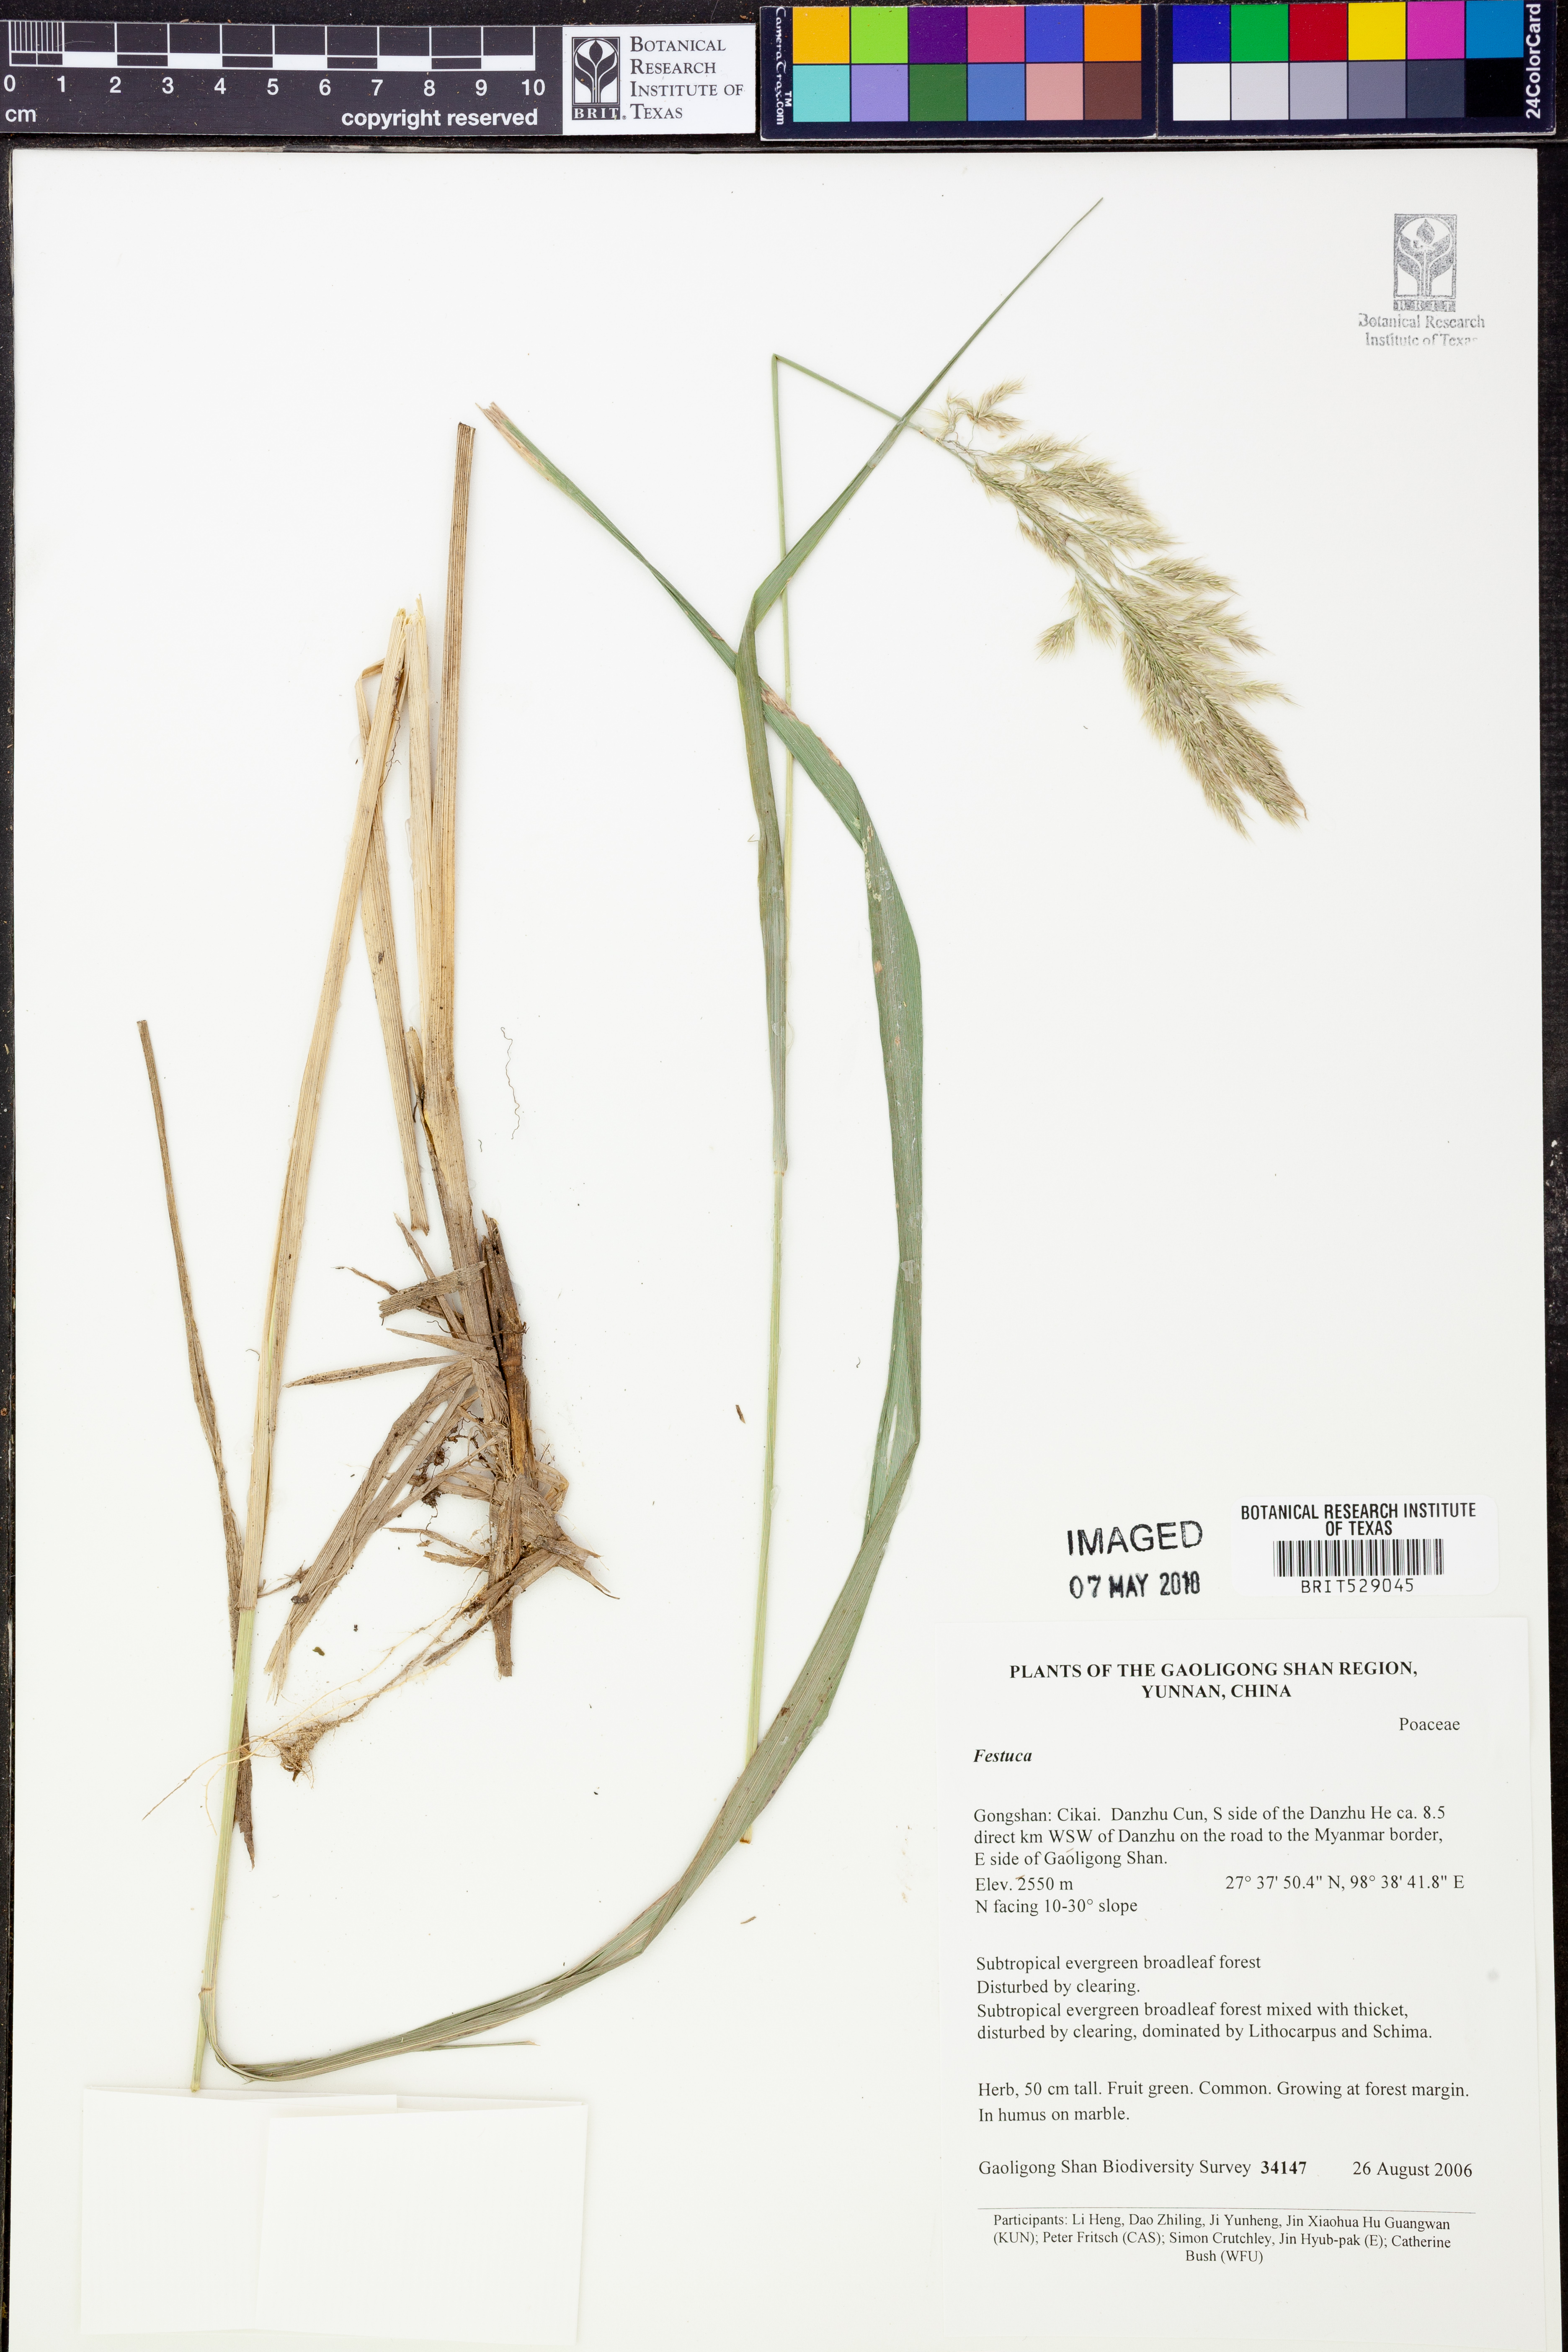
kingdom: Plantae
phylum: Tracheophyta
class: Liliopsida
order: Poales
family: Poaceae
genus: Festuca
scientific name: Festuca
